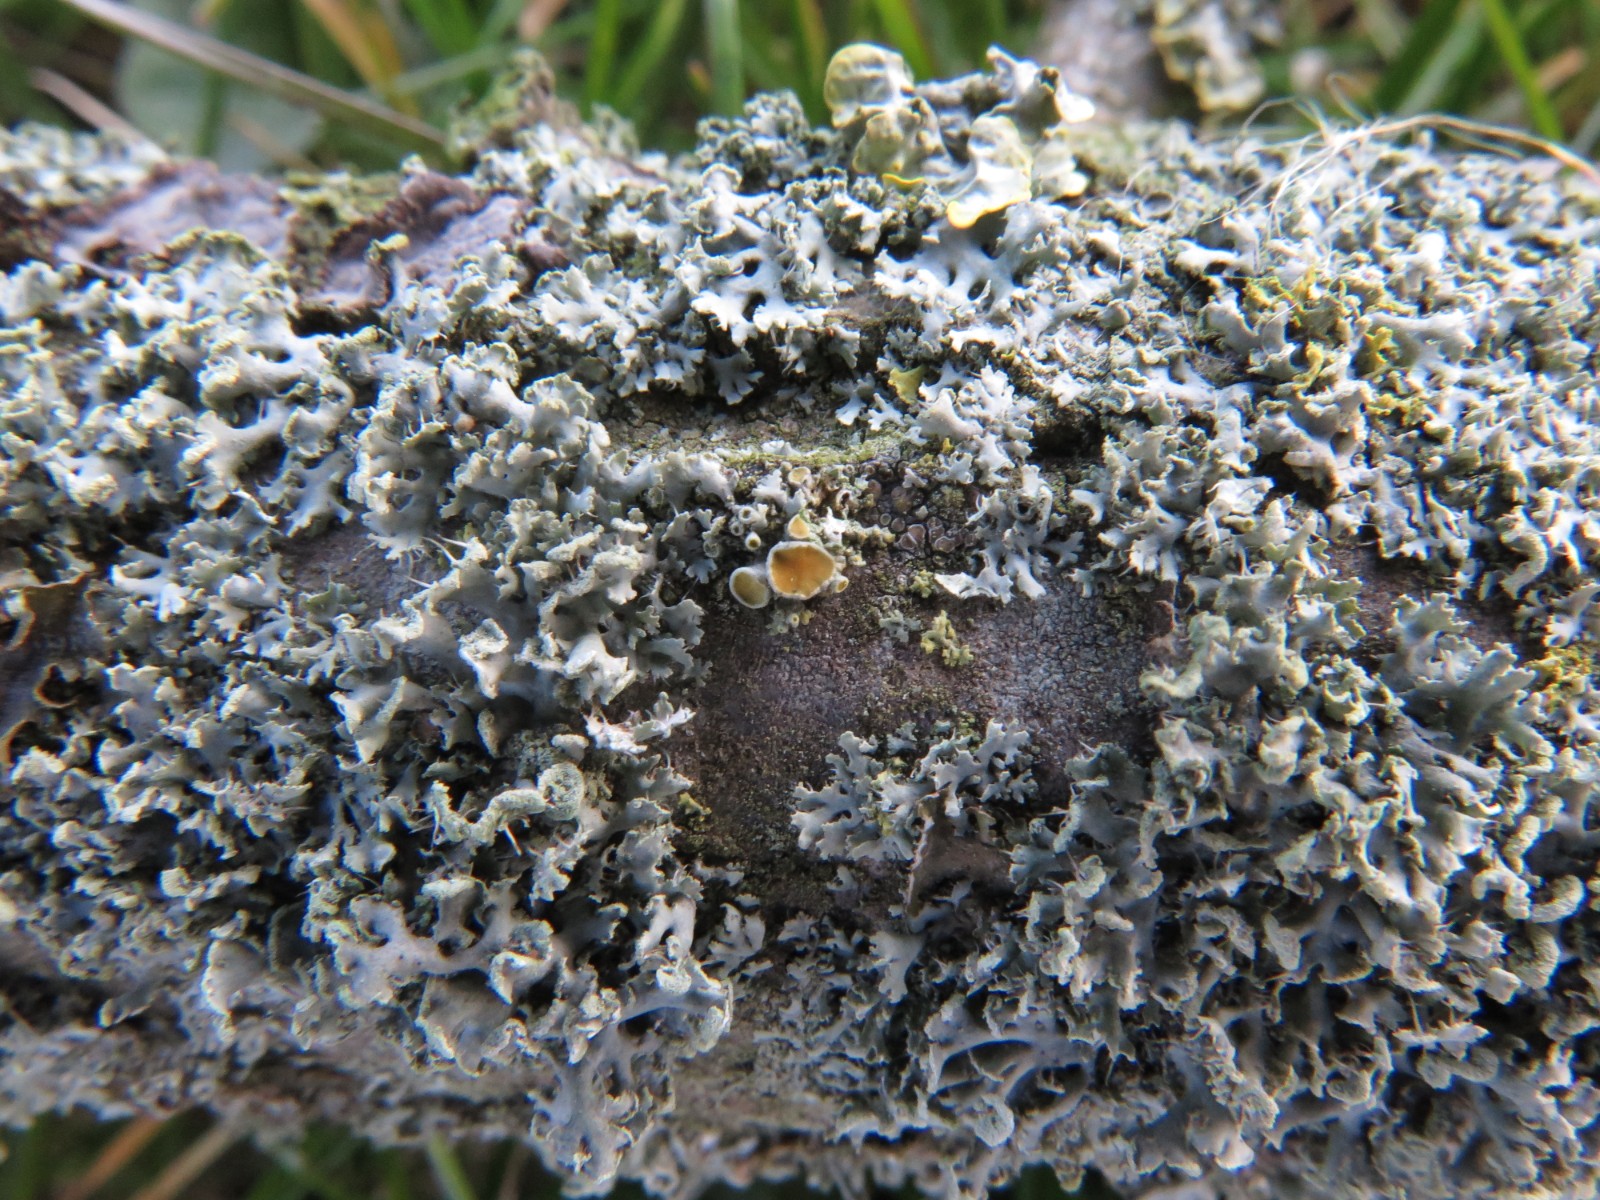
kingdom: Fungi
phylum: Ascomycota
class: Lecanoromycetes
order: Teloschistales
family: Teloschistaceae
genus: Polycauliona
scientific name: Polycauliona polycarpa
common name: mangefrugtet orangelav
